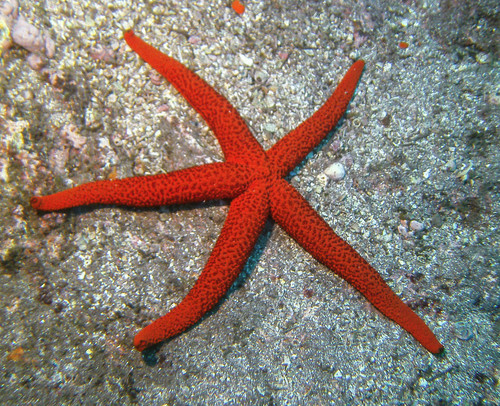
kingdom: Animalia
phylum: Echinodermata
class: Asteroidea
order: Spinulosida
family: Echinasteridae
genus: Echinaster
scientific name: Echinaster sepositus
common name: Red starfish
